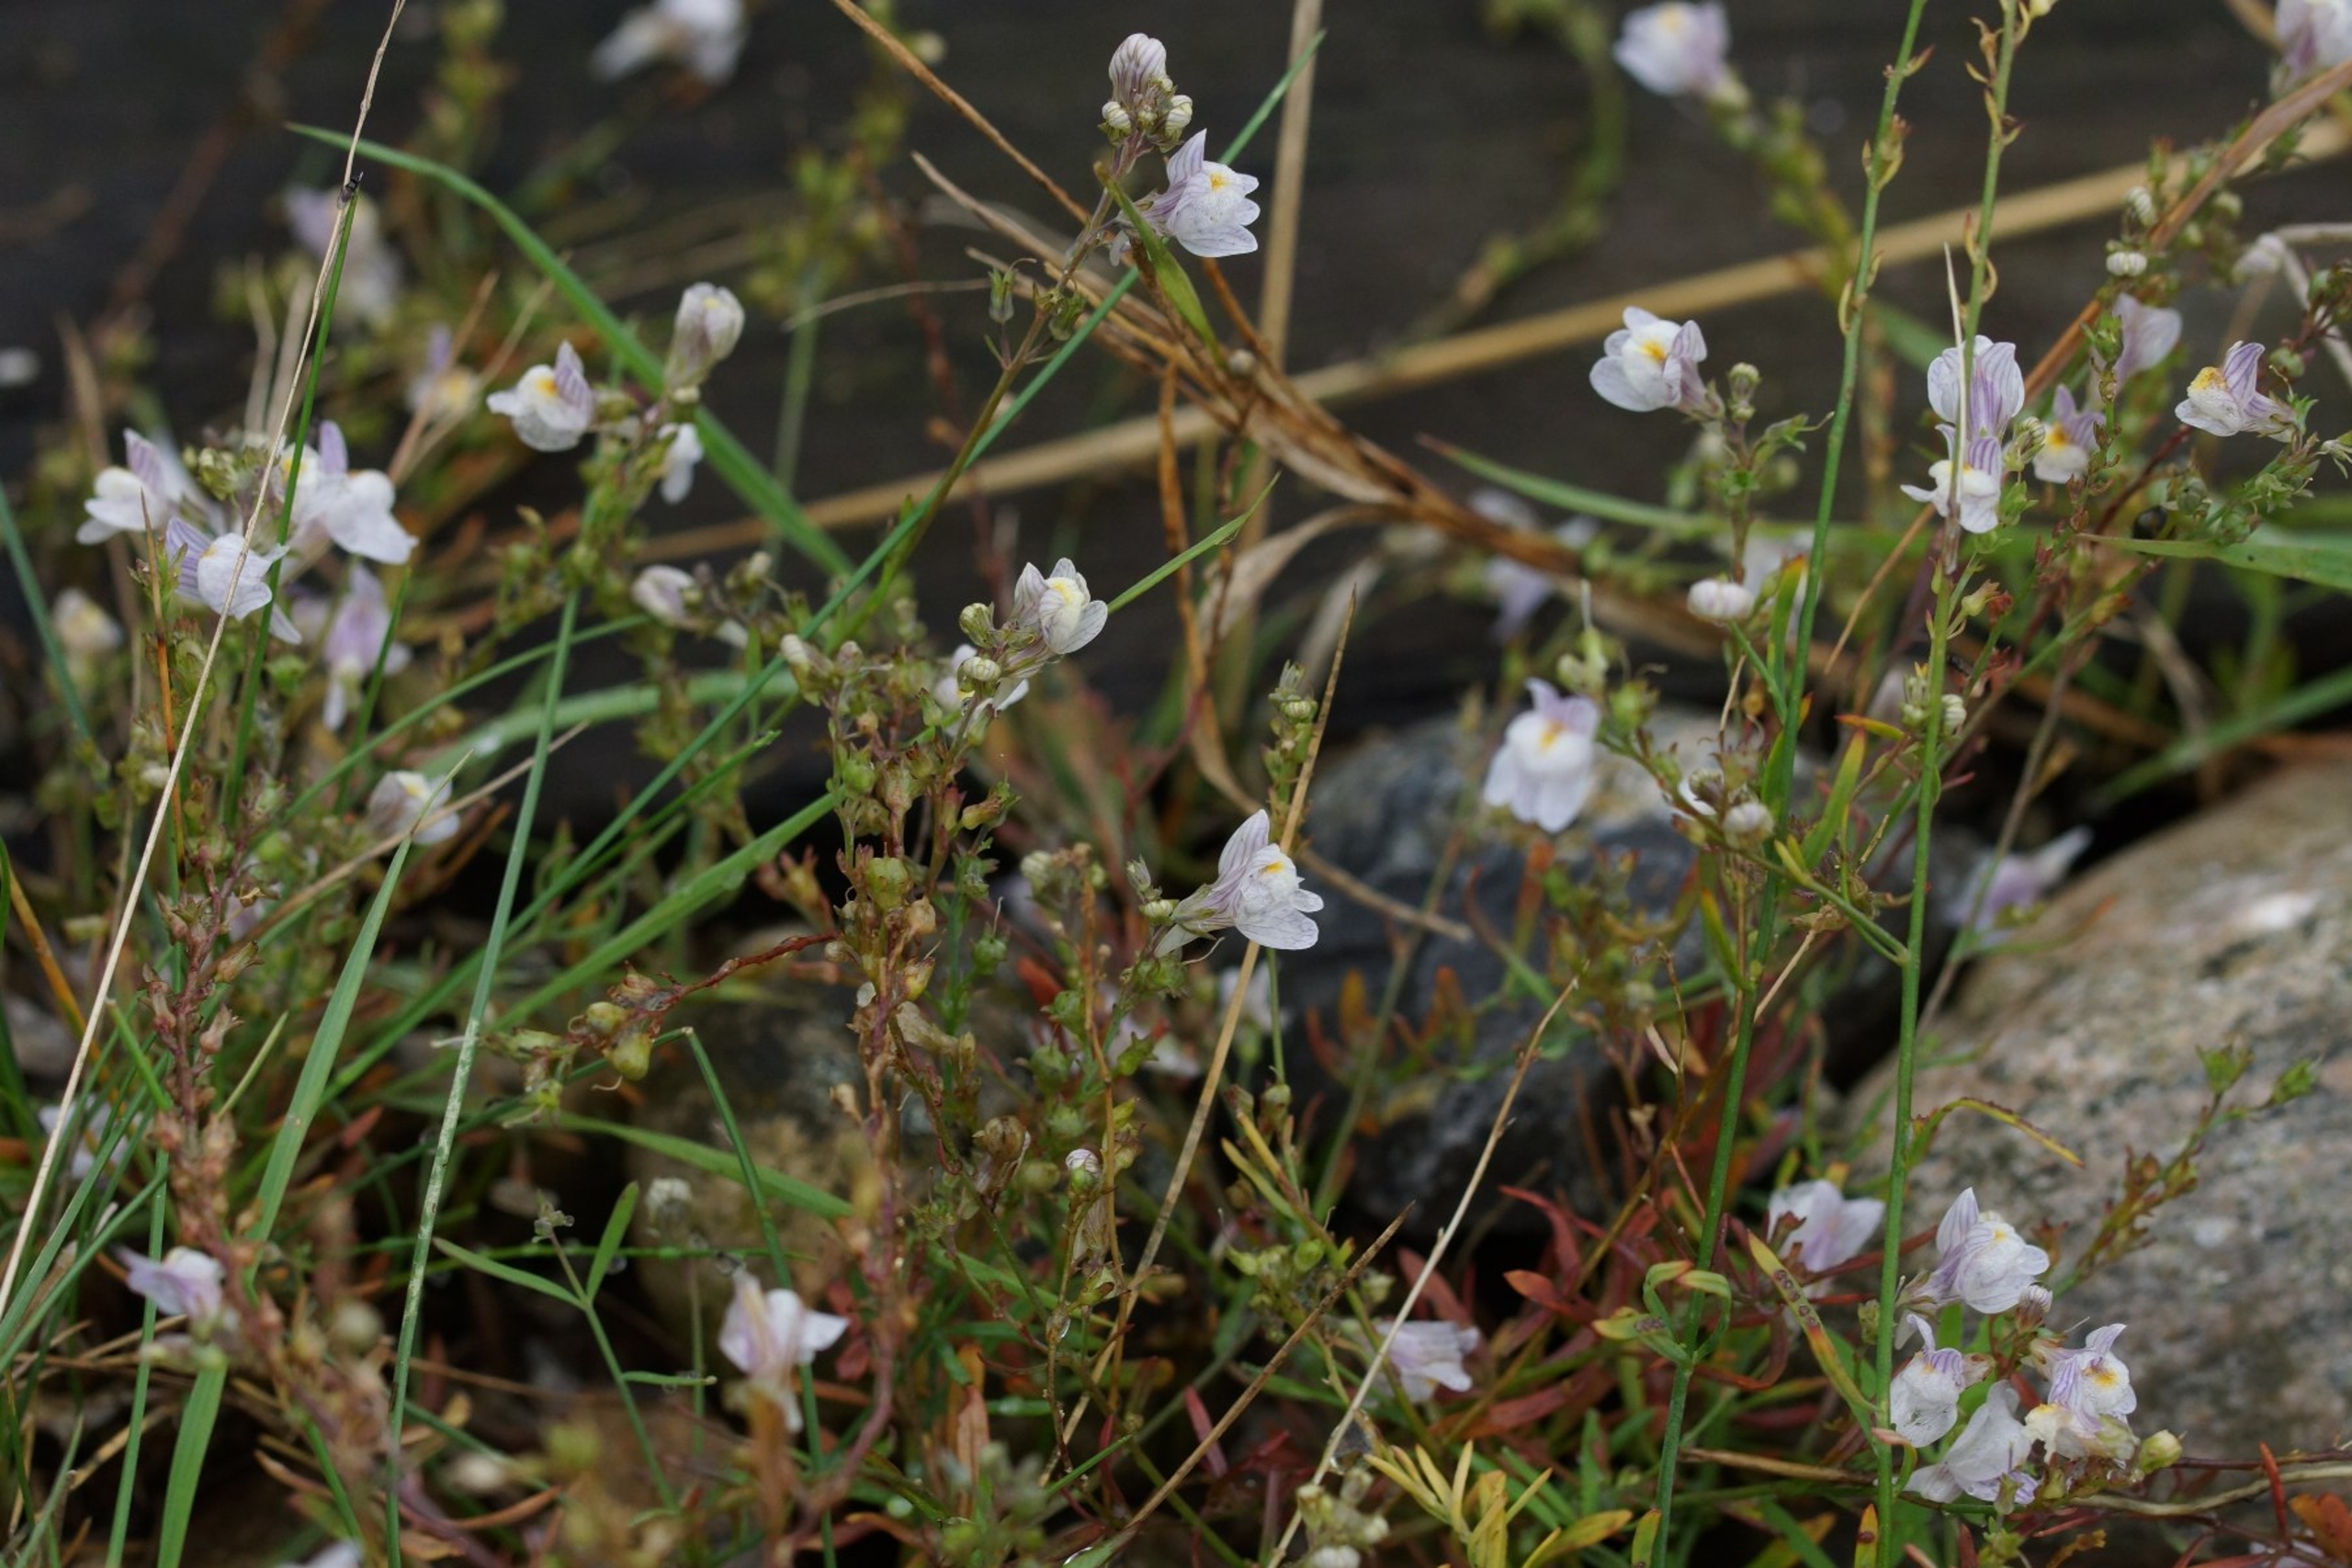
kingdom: Plantae
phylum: Tracheophyta
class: Magnoliopsida
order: Lamiales
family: Plantaginaceae
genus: Linaria
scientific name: Linaria repens
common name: Stribet torskemund
